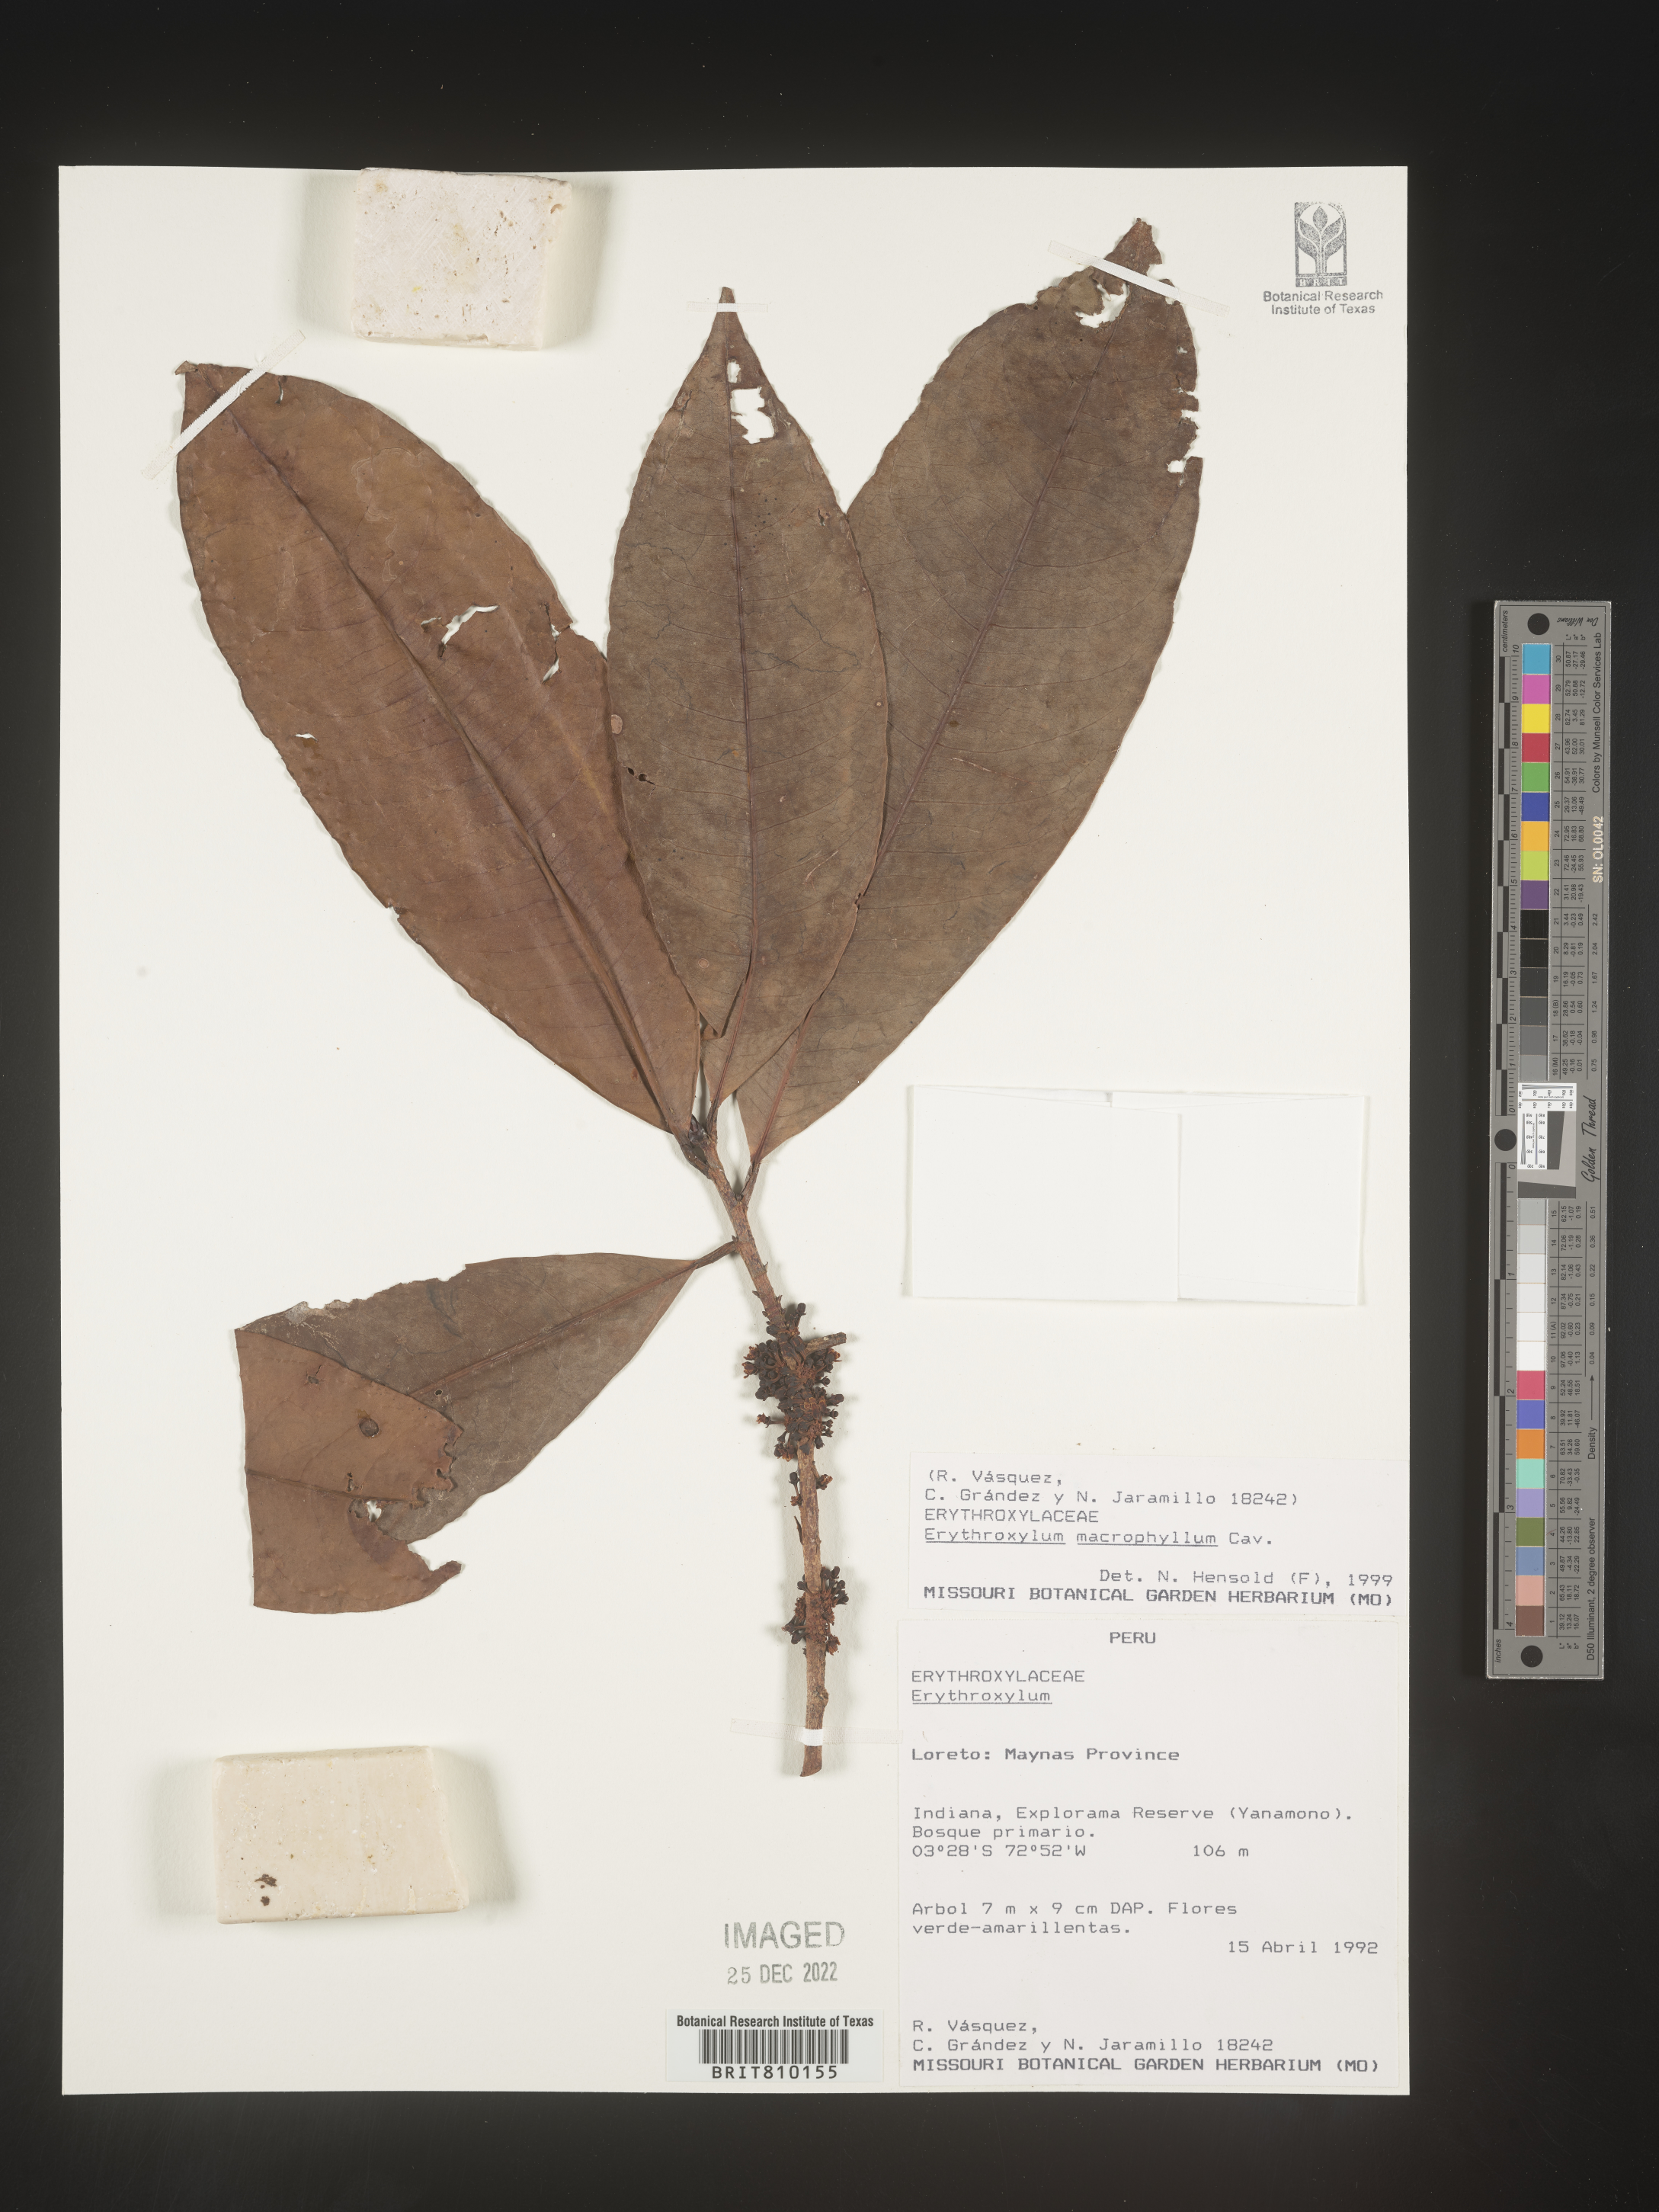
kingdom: Plantae
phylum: Tracheophyta
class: Magnoliopsida
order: Malpighiales
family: Erythroxylaceae
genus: Erythroxylum
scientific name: Erythroxylum
